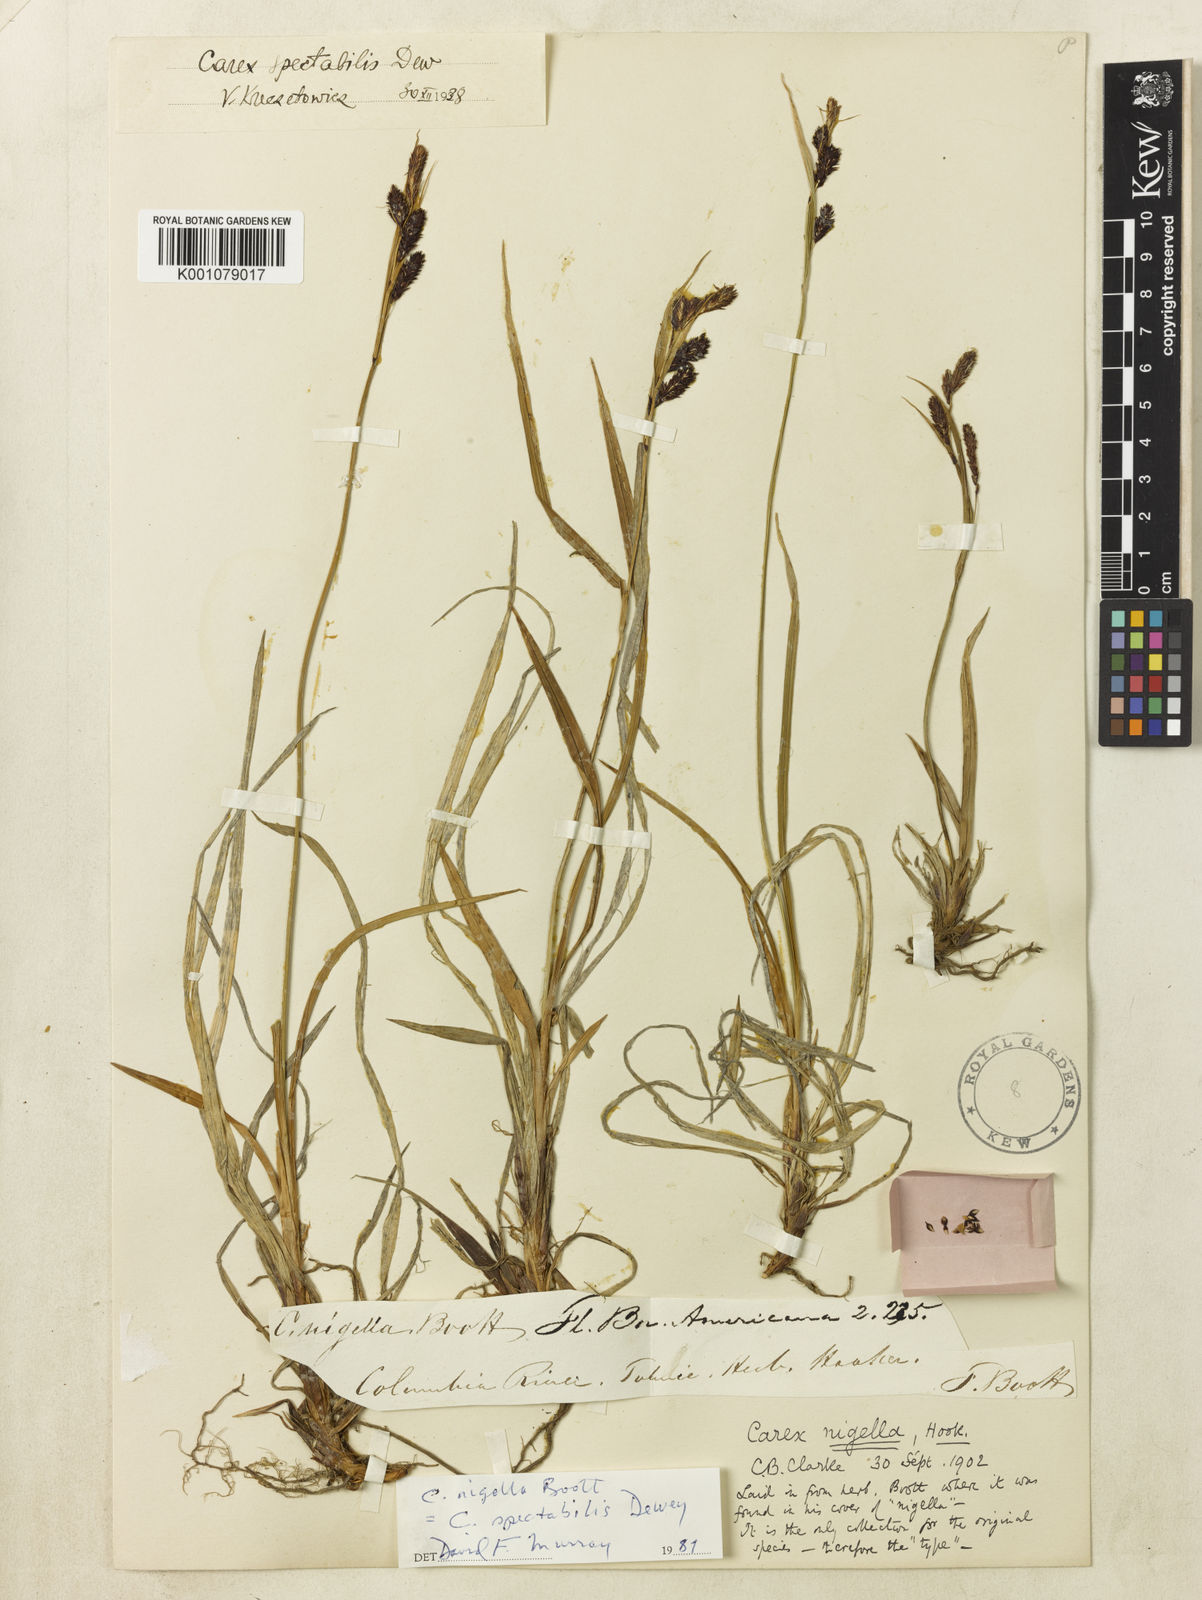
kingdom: Plantae
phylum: Tracheophyta
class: Liliopsida
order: Poales
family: Cyperaceae
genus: Carex
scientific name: Carex spectabilis
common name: Northwestern showy sedge
